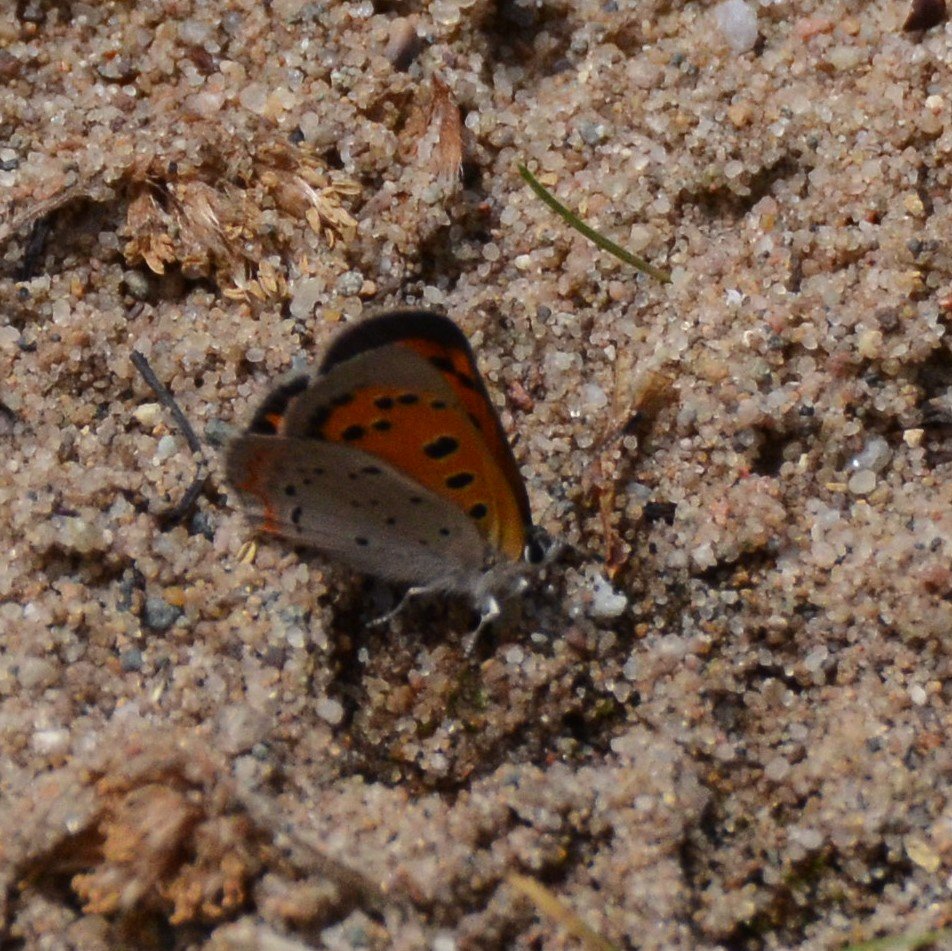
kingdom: Animalia
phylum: Arthropoda
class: Insecta
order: Lepidoptera
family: Lycaenidae
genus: Lycaena
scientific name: Lycaena phlaeas
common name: American Copper
